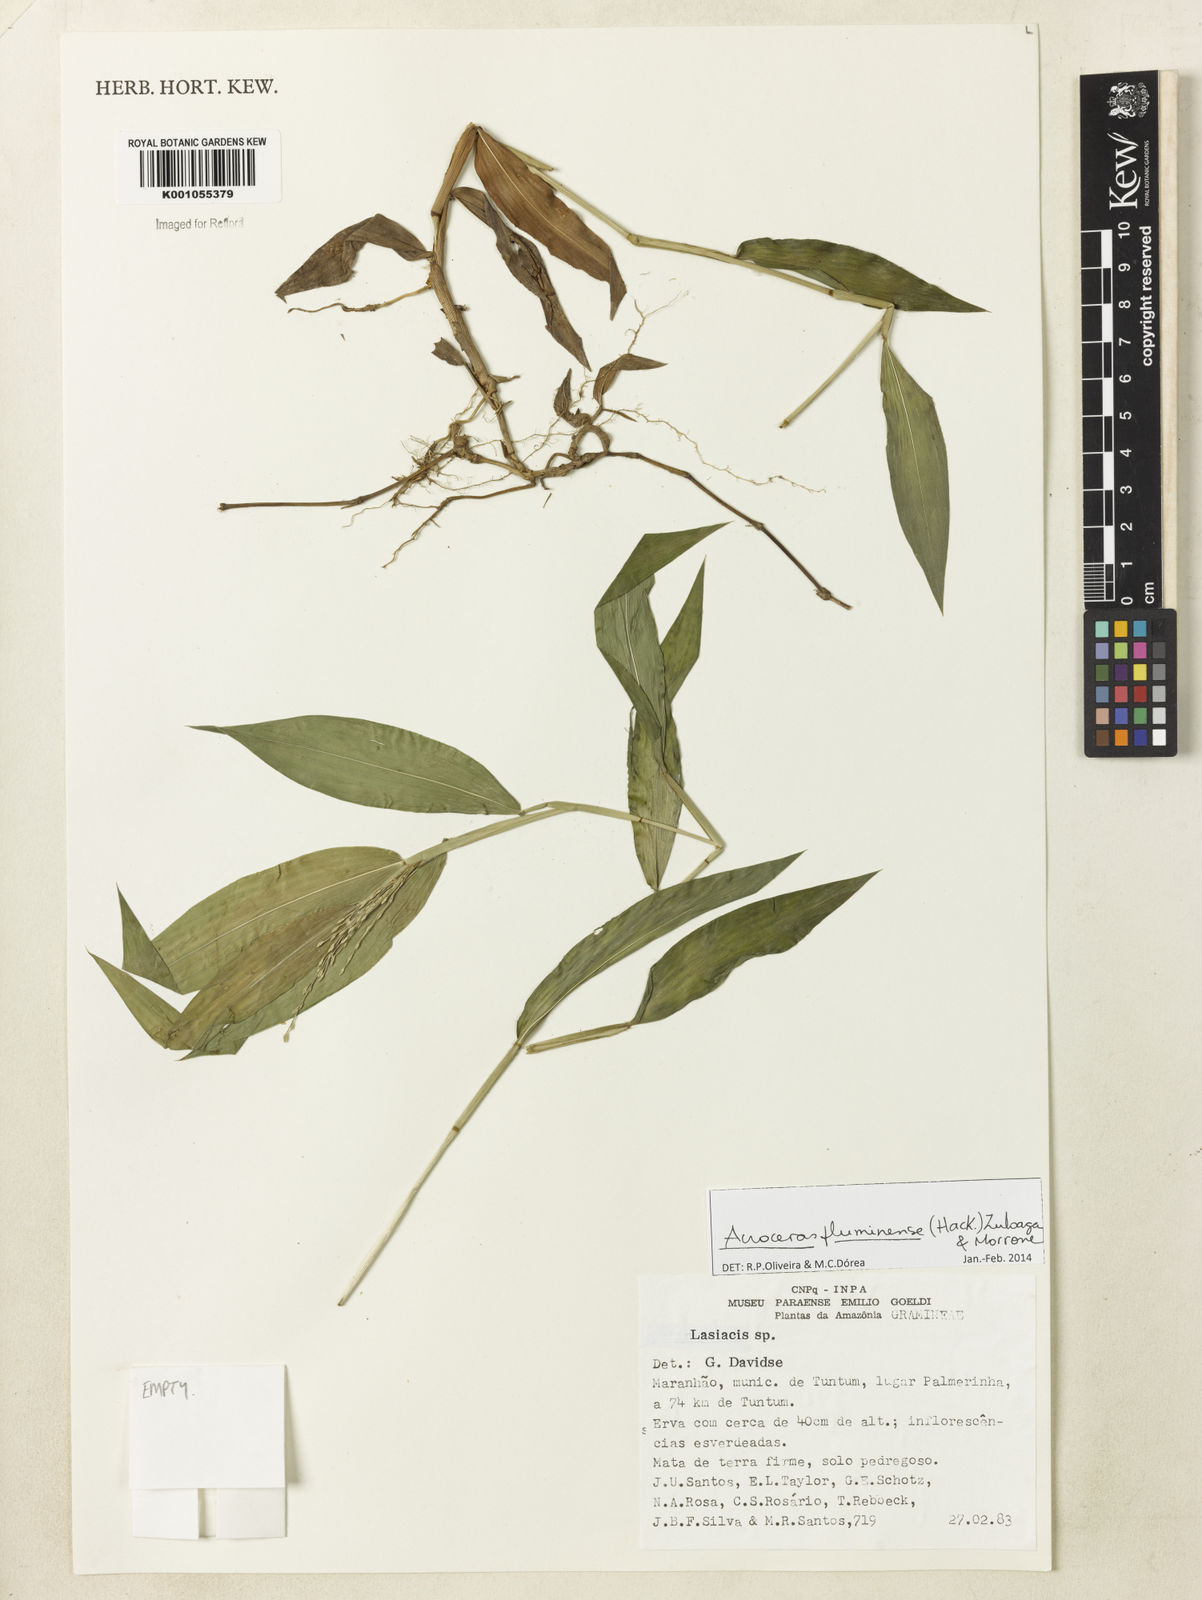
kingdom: Plantae
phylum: Tracheophyta
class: Liliopsida
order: Poales
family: Poaceae
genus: Acroceras
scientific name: Acroceras fluminense
